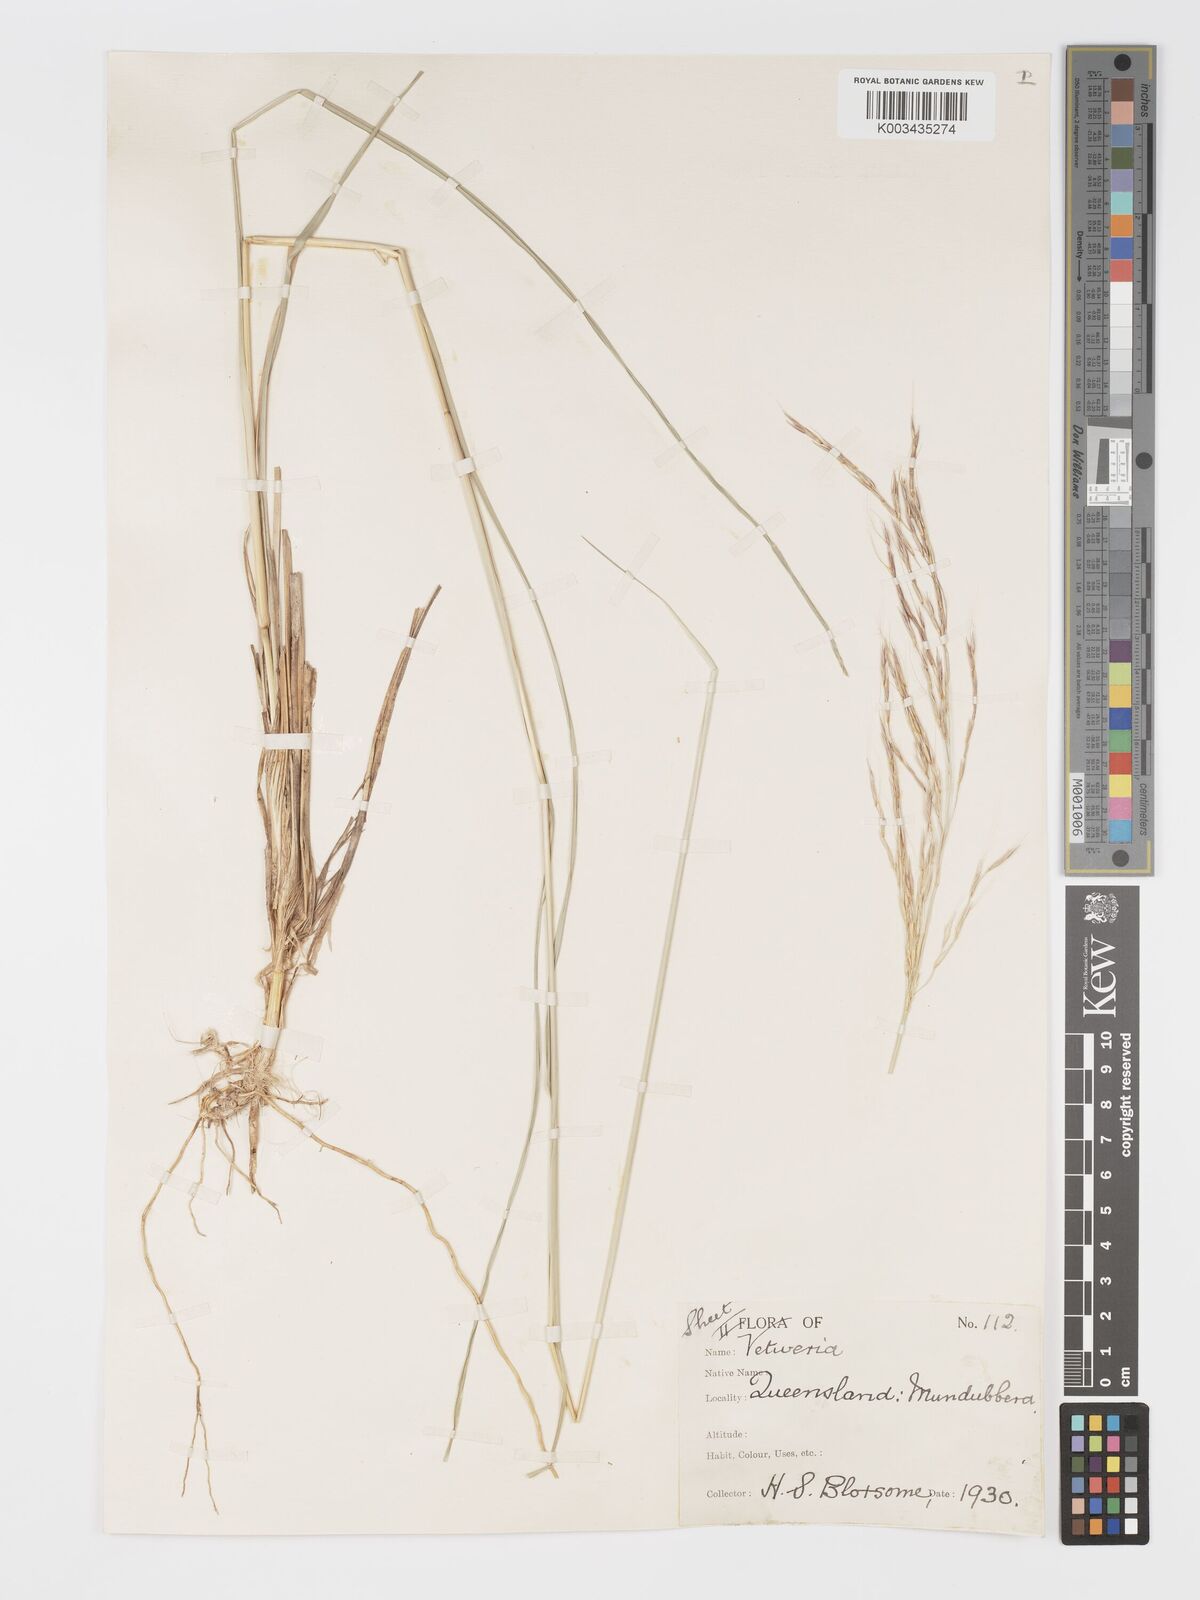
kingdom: Plantae
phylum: Tracheophyta
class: Liliopsida
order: Poales
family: Poaceae
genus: Chrysopogon
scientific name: Chrysopogon filipes
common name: Australian vetiver
